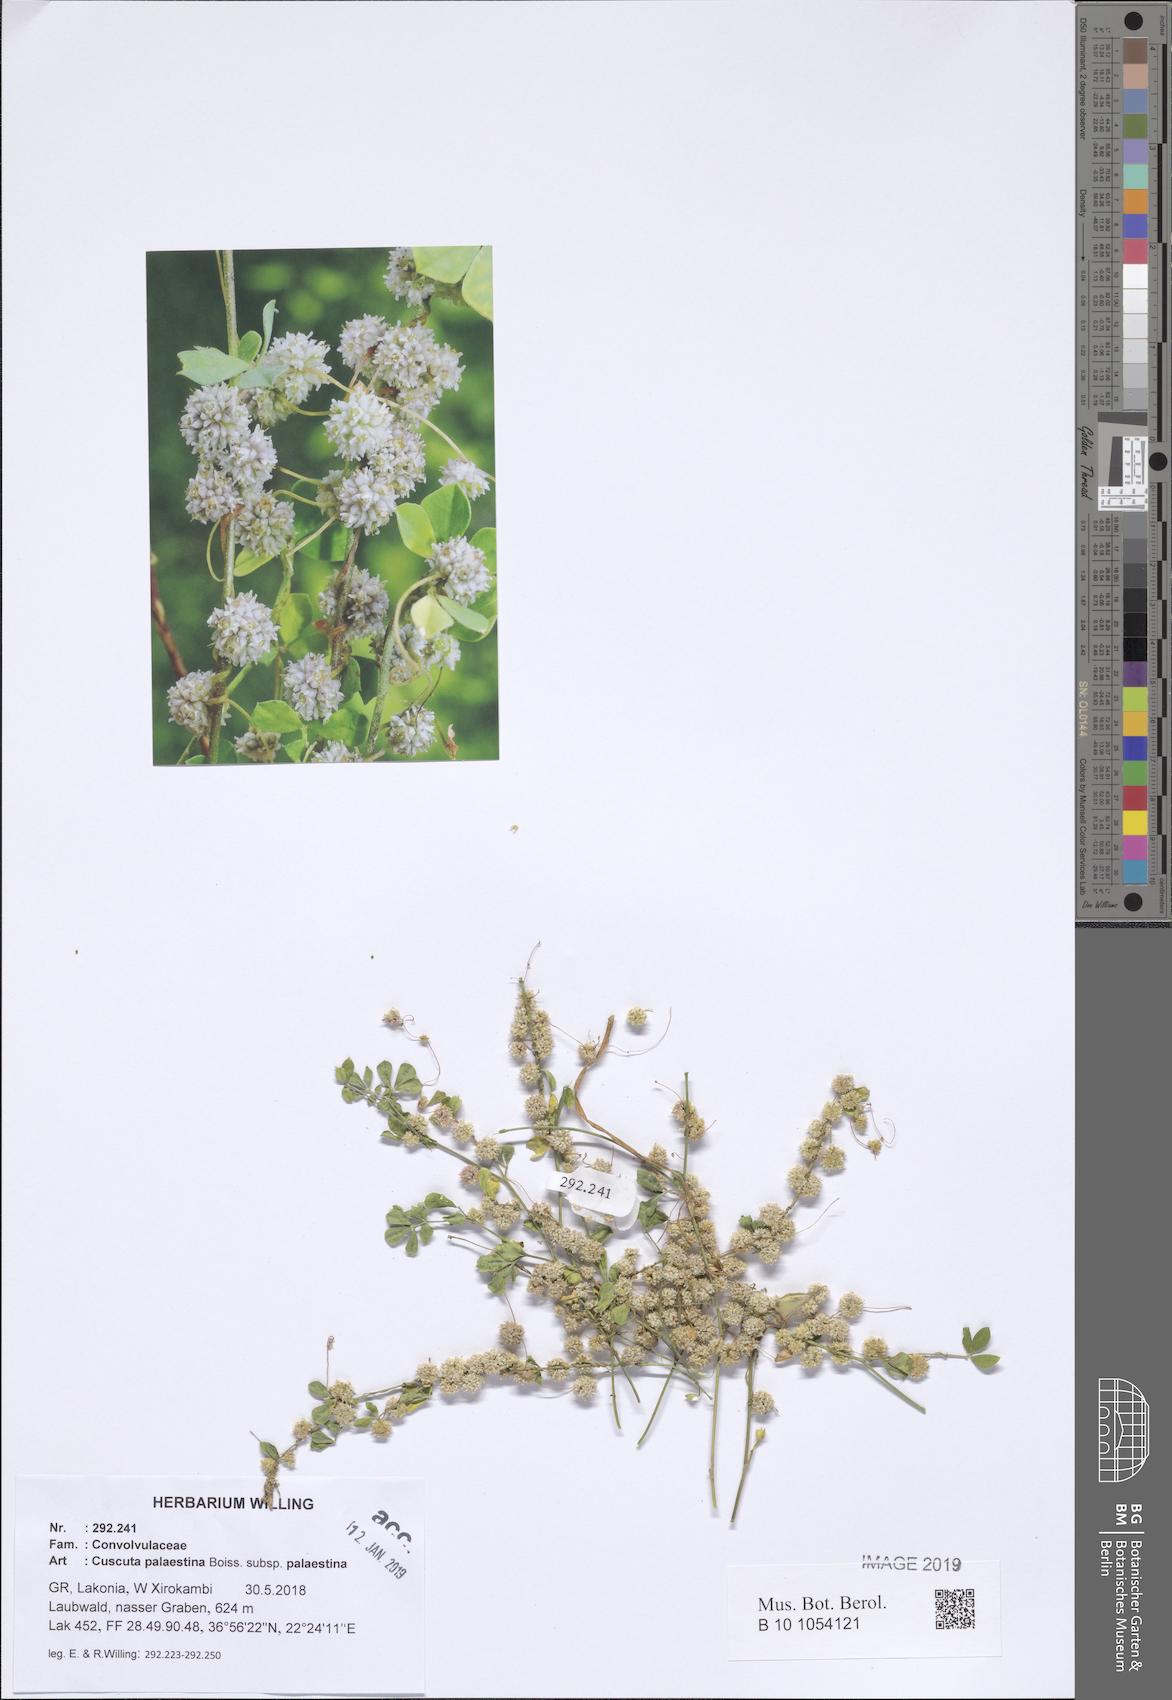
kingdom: Plantae
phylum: Tracheophyta
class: Magnoliopsida
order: Solanales
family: Convolvulaceae
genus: Cuscuta
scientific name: Cuscuta palaestina
